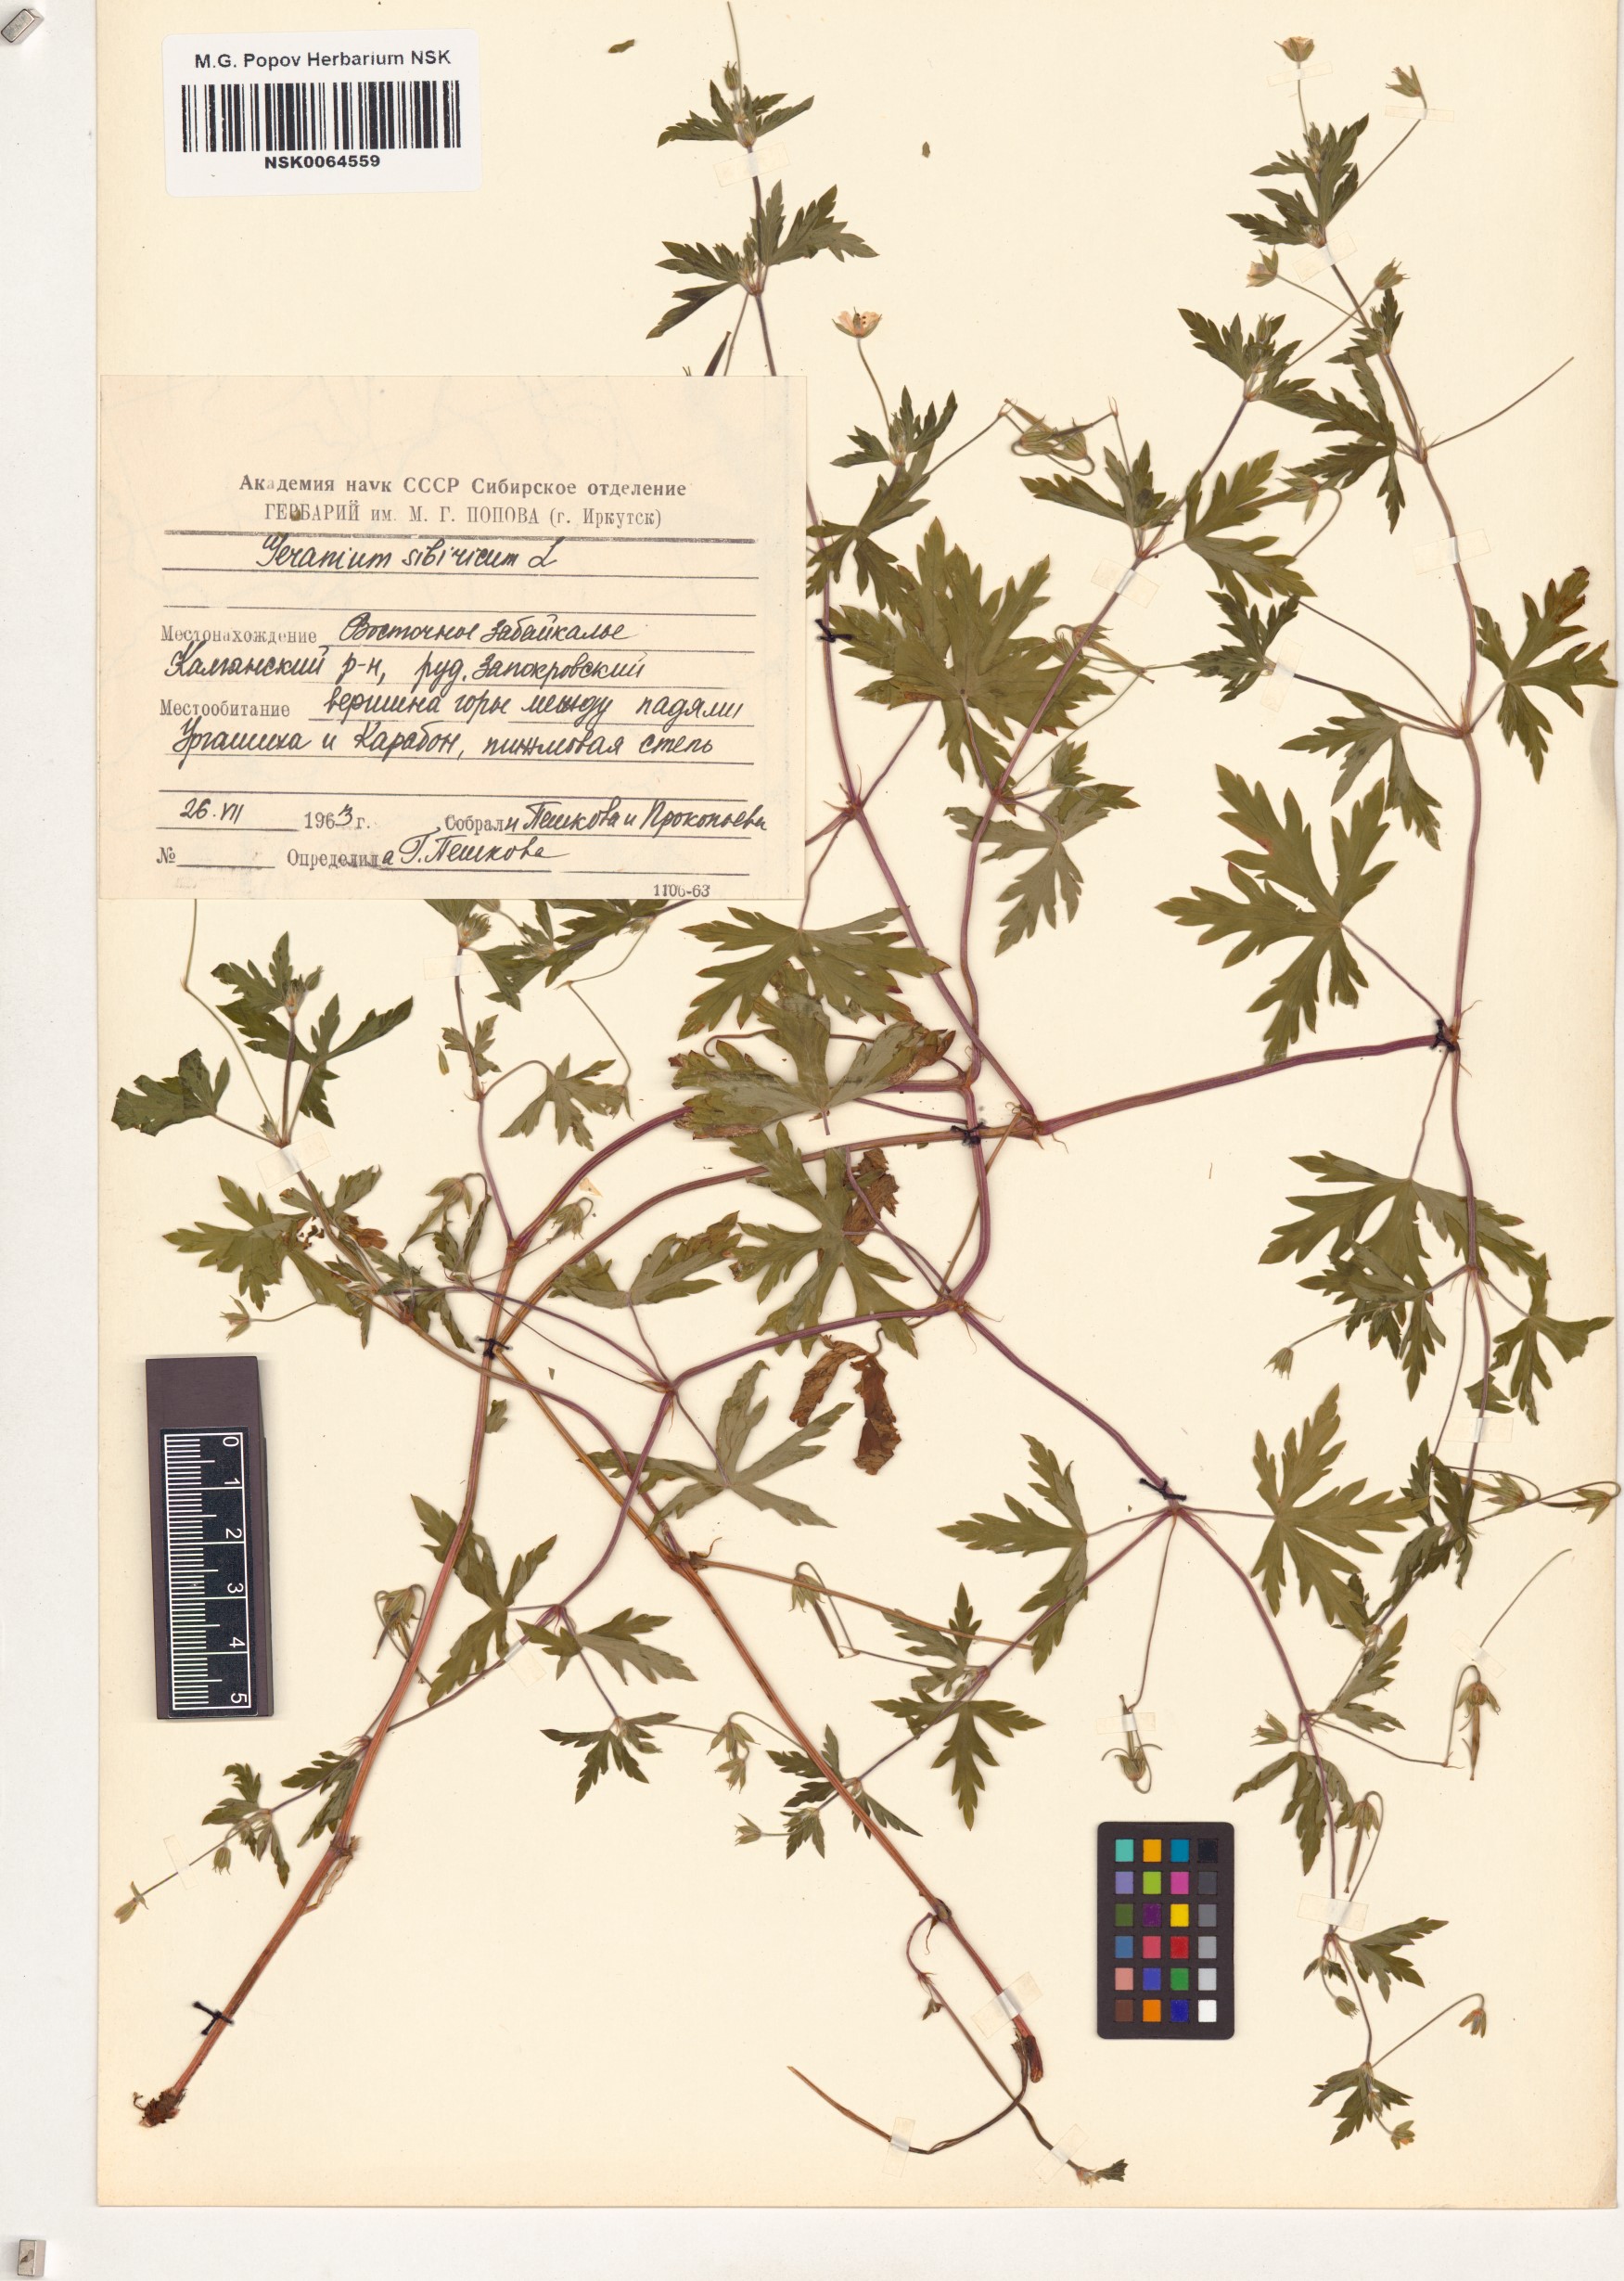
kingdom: Plantae
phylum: Tracheophyta
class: Magnoliopsida
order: Geraniales
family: Geraniaceae
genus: Geranium
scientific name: Geranium sibiricum
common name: Siberian crane's-bill
